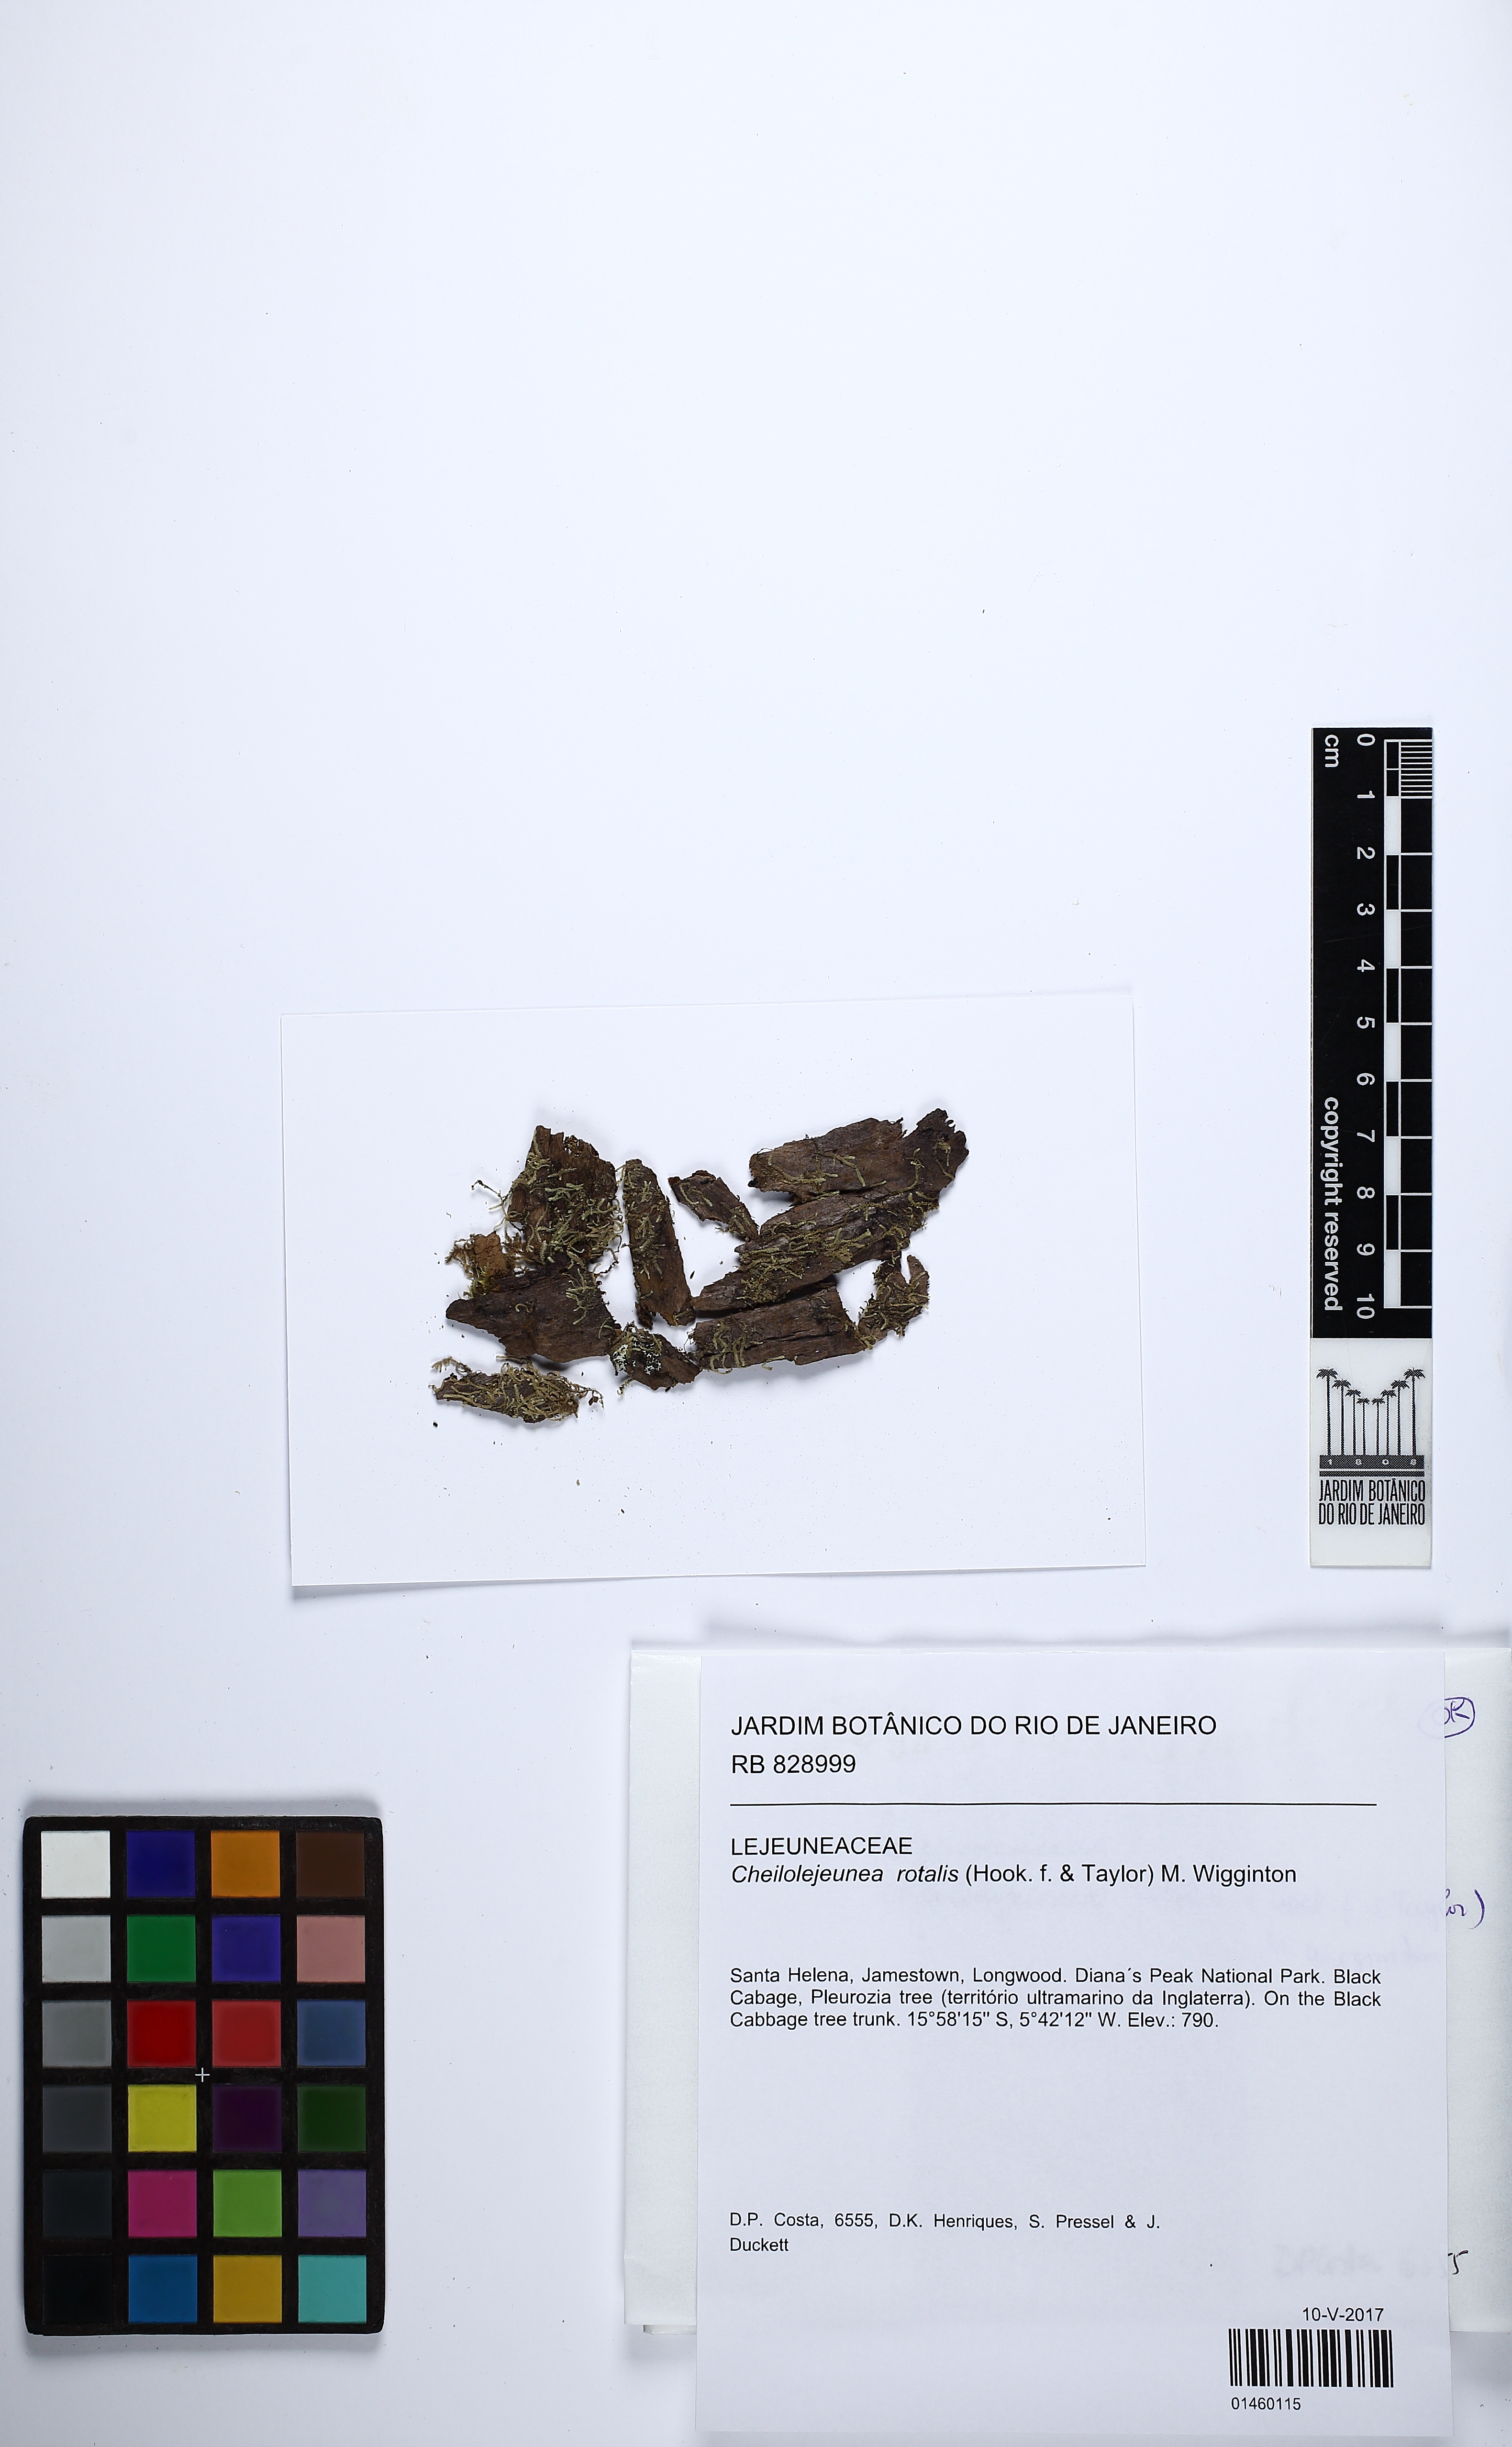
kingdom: Plantae
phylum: Marchantiophyta
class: Jungermanniopsida
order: Porellales
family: Lejeuneaceae
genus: Cheilolejeunea
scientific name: Cheilolejeunea rotalis
